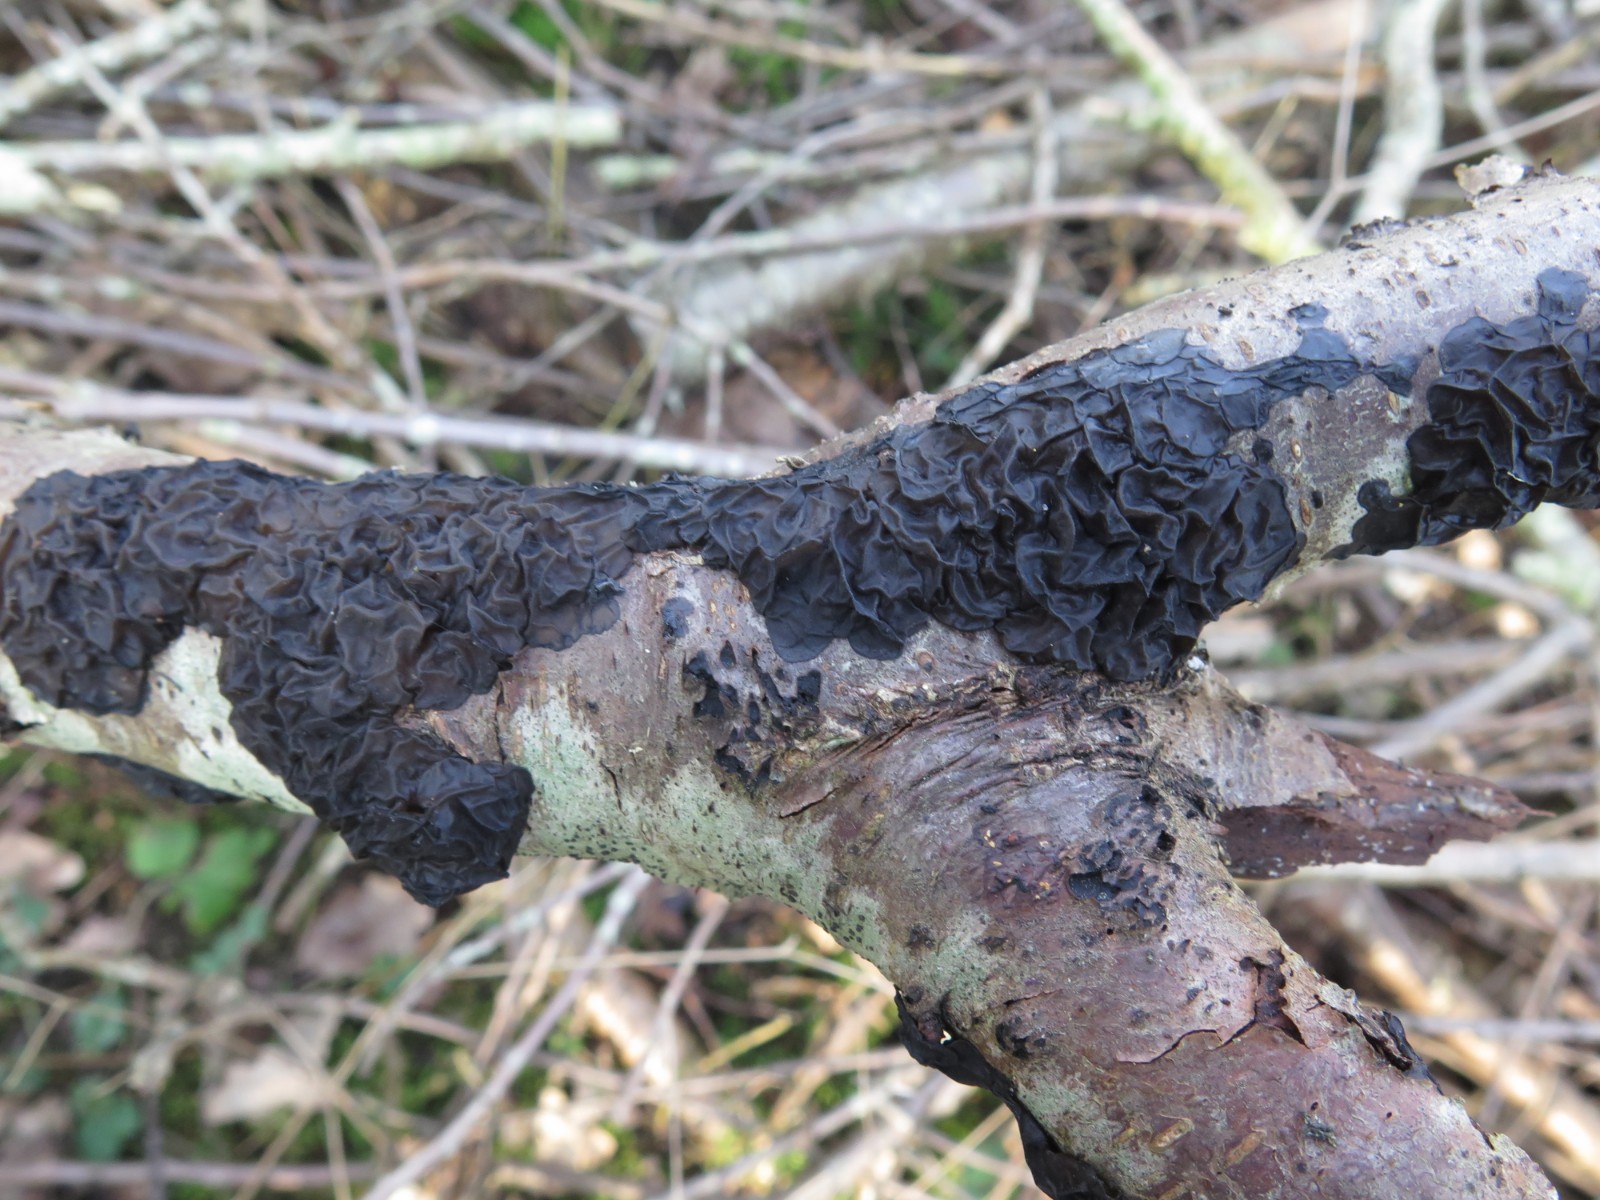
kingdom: Fungi
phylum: Basidiomycota
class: Agaricomycetes
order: Auriculariales
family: Auriculariaceae
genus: Exidia
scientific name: Exidia nigricans
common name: almindelig bævretop
